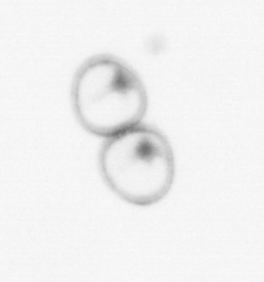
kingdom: Chromista
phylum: Myzozoa
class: Dinophyceae
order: Noctilucales
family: Noctilucaceae
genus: Noctiluca
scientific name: Noctiluca scintillans
